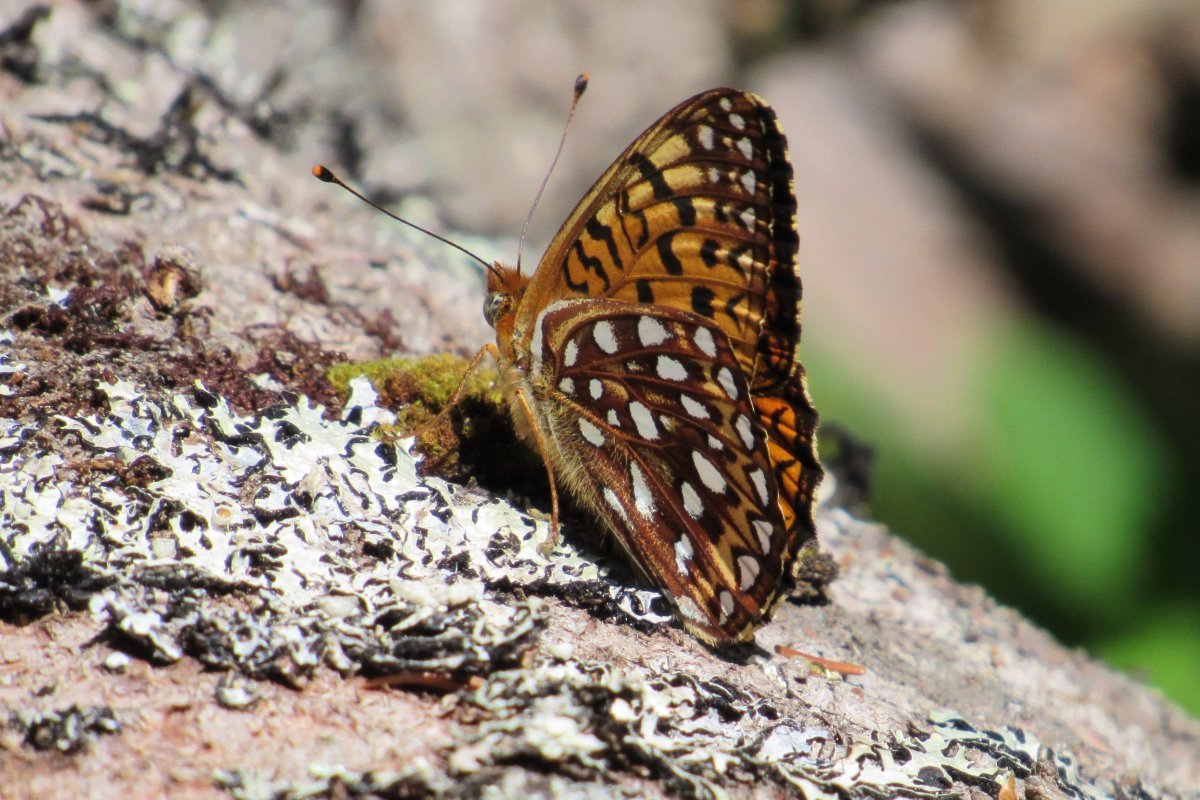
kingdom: Animalia
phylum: Arthropoda
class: Insecta
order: Lepidoptera
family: Nymphalidae
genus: Speyeria
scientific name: Speyeria
